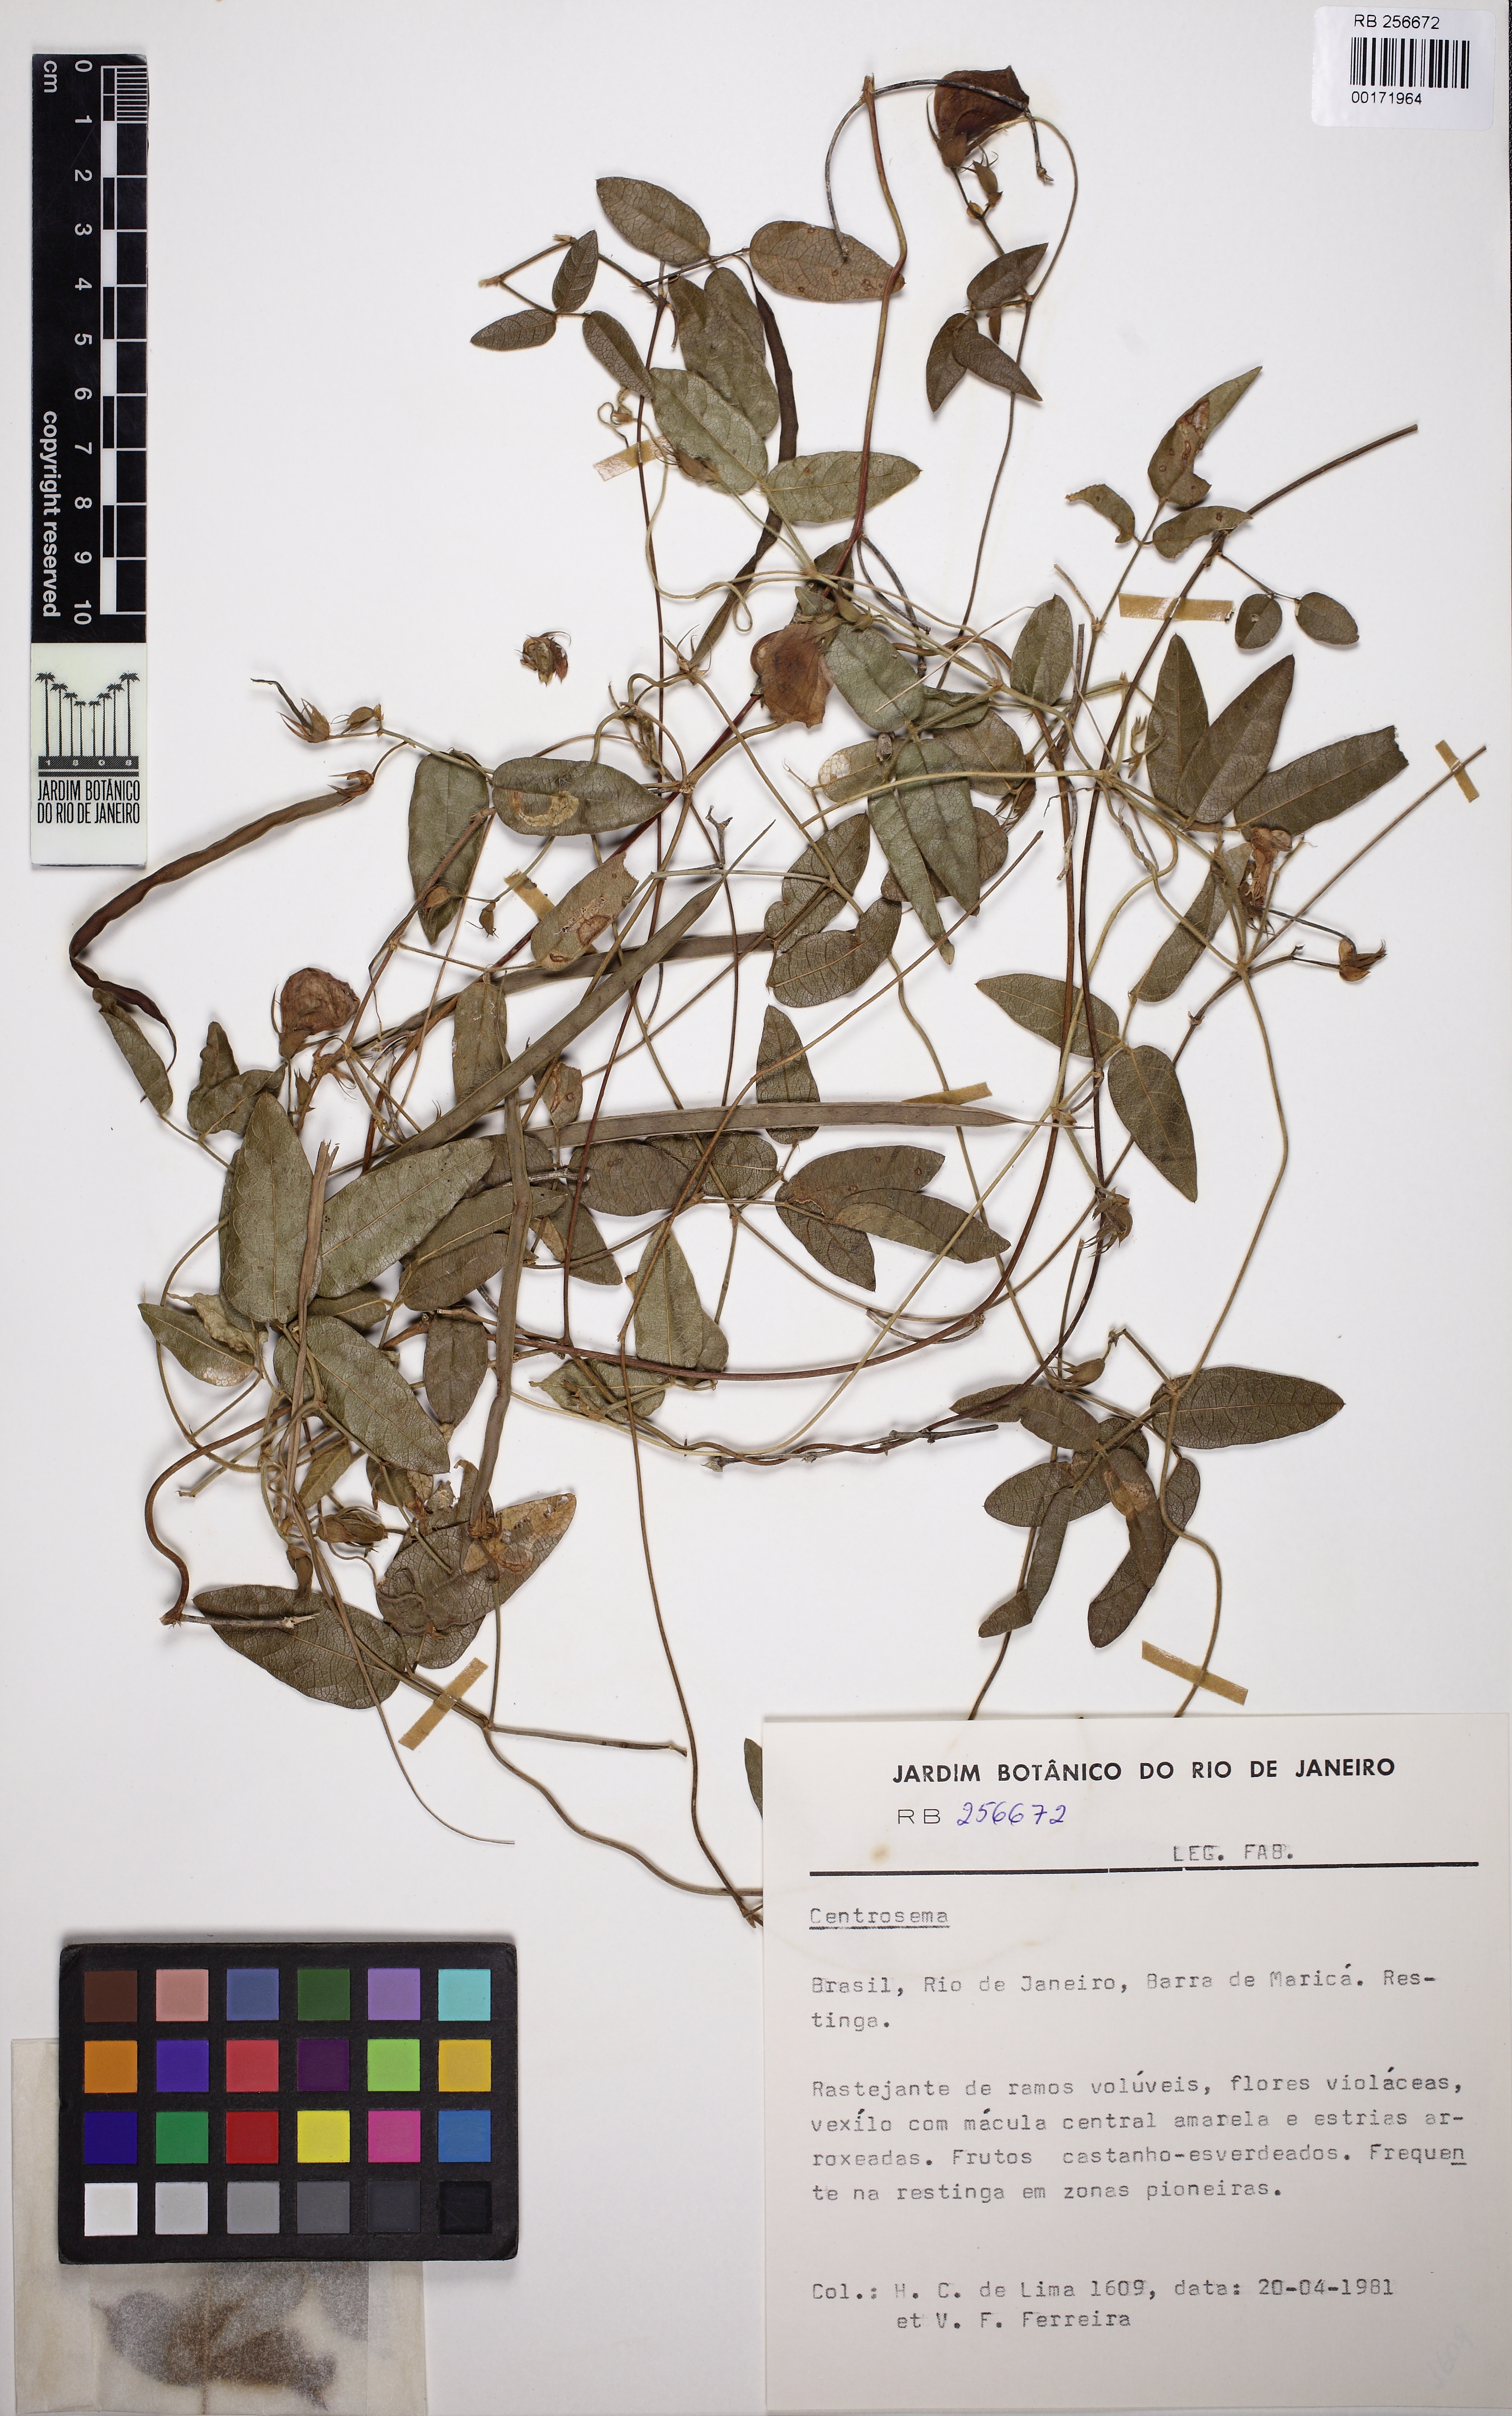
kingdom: Plantae
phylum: Tracheophyta
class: Magnoliopsida
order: Fabales
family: Fabaceae
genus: Centrosema
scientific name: Centrosema
